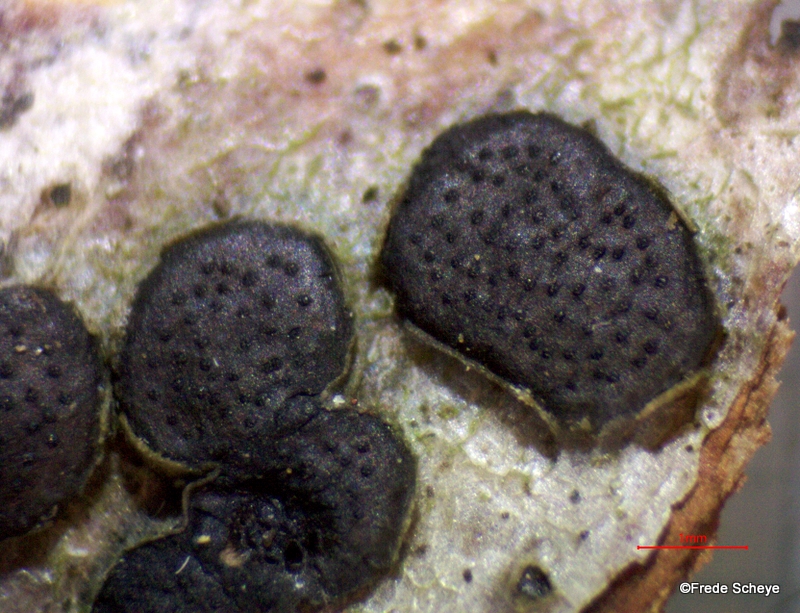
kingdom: Fungi
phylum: Ascomycota
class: Sordariomycetes
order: Xylariales
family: Diatrypaceae
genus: Diatrype
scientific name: Diatrype disciformis
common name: kant-kulskorpe
